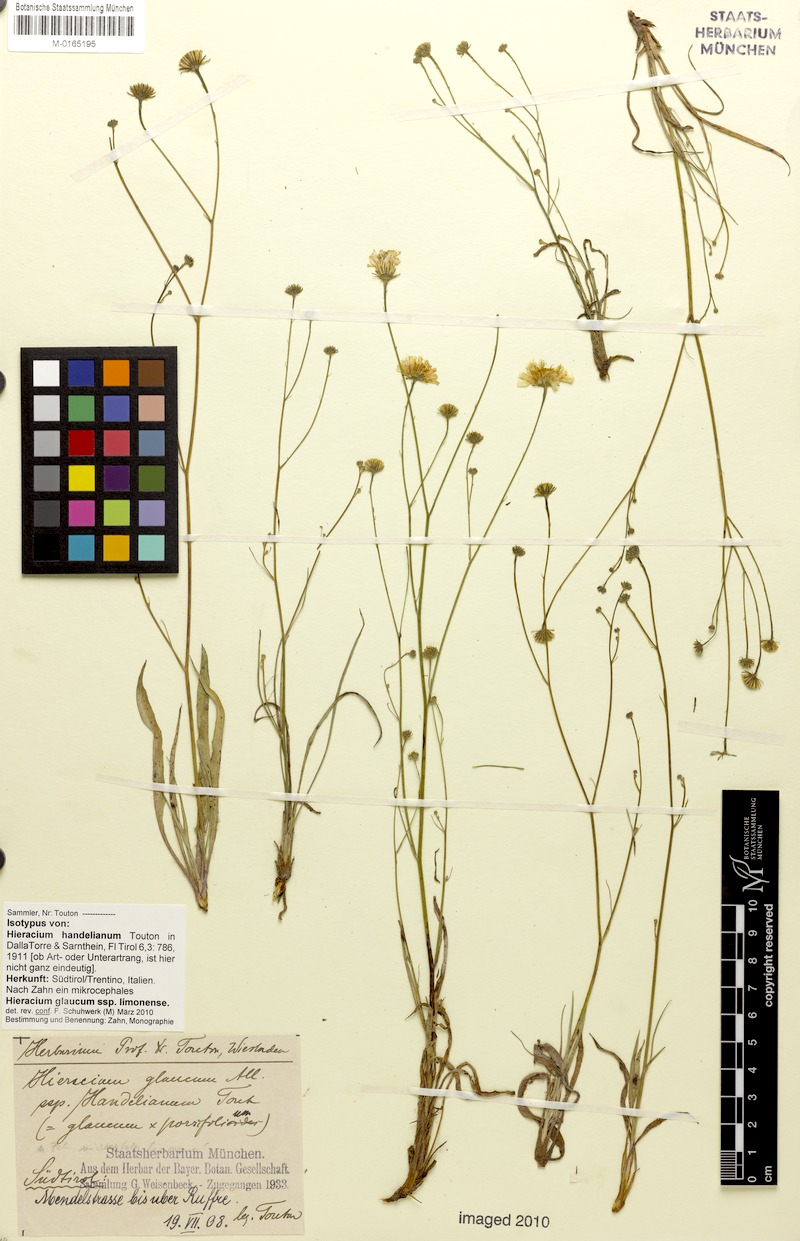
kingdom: Plantae
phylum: Tracheophyta
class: Magnoliopsida
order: Asterales
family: Asteraceae
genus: Hieracium
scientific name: Hieracium glaucum
